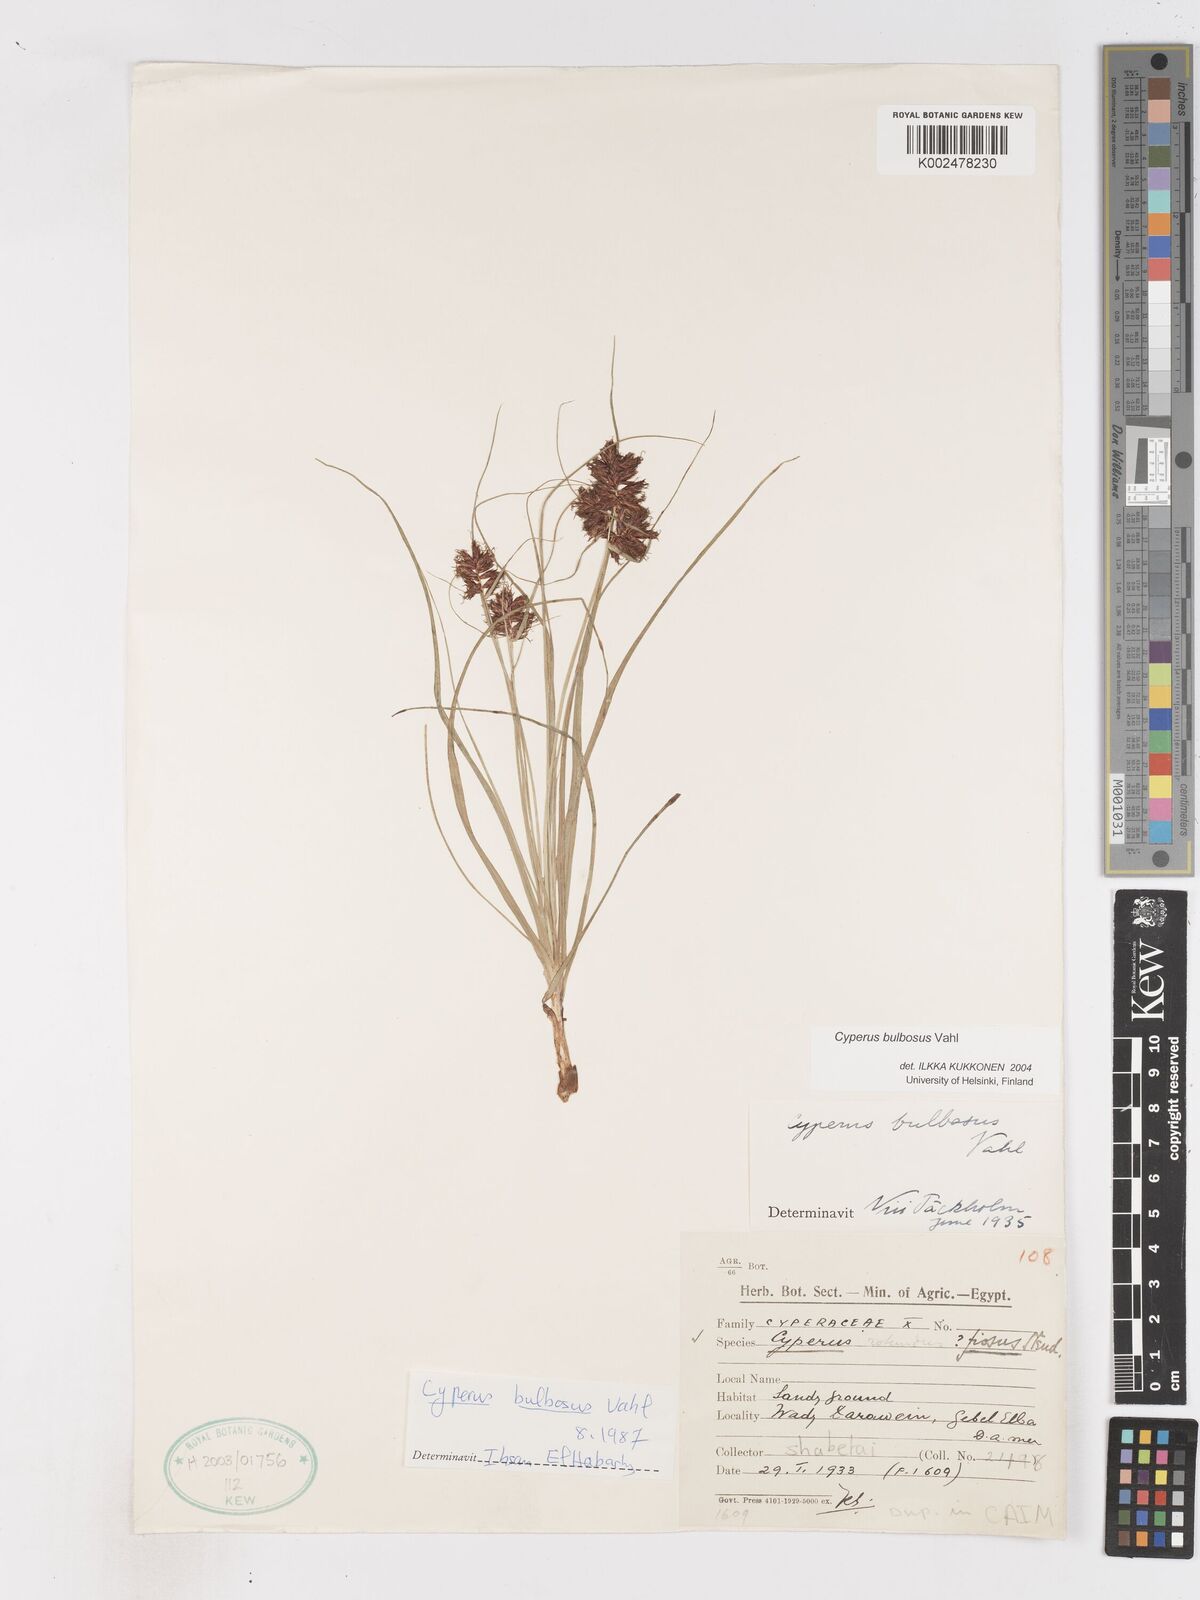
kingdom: Plantae
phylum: Tracheophyta
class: Liliopsida
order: Poales
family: Cyperaceae
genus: Cyperus
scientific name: Cyperus bulbosus
